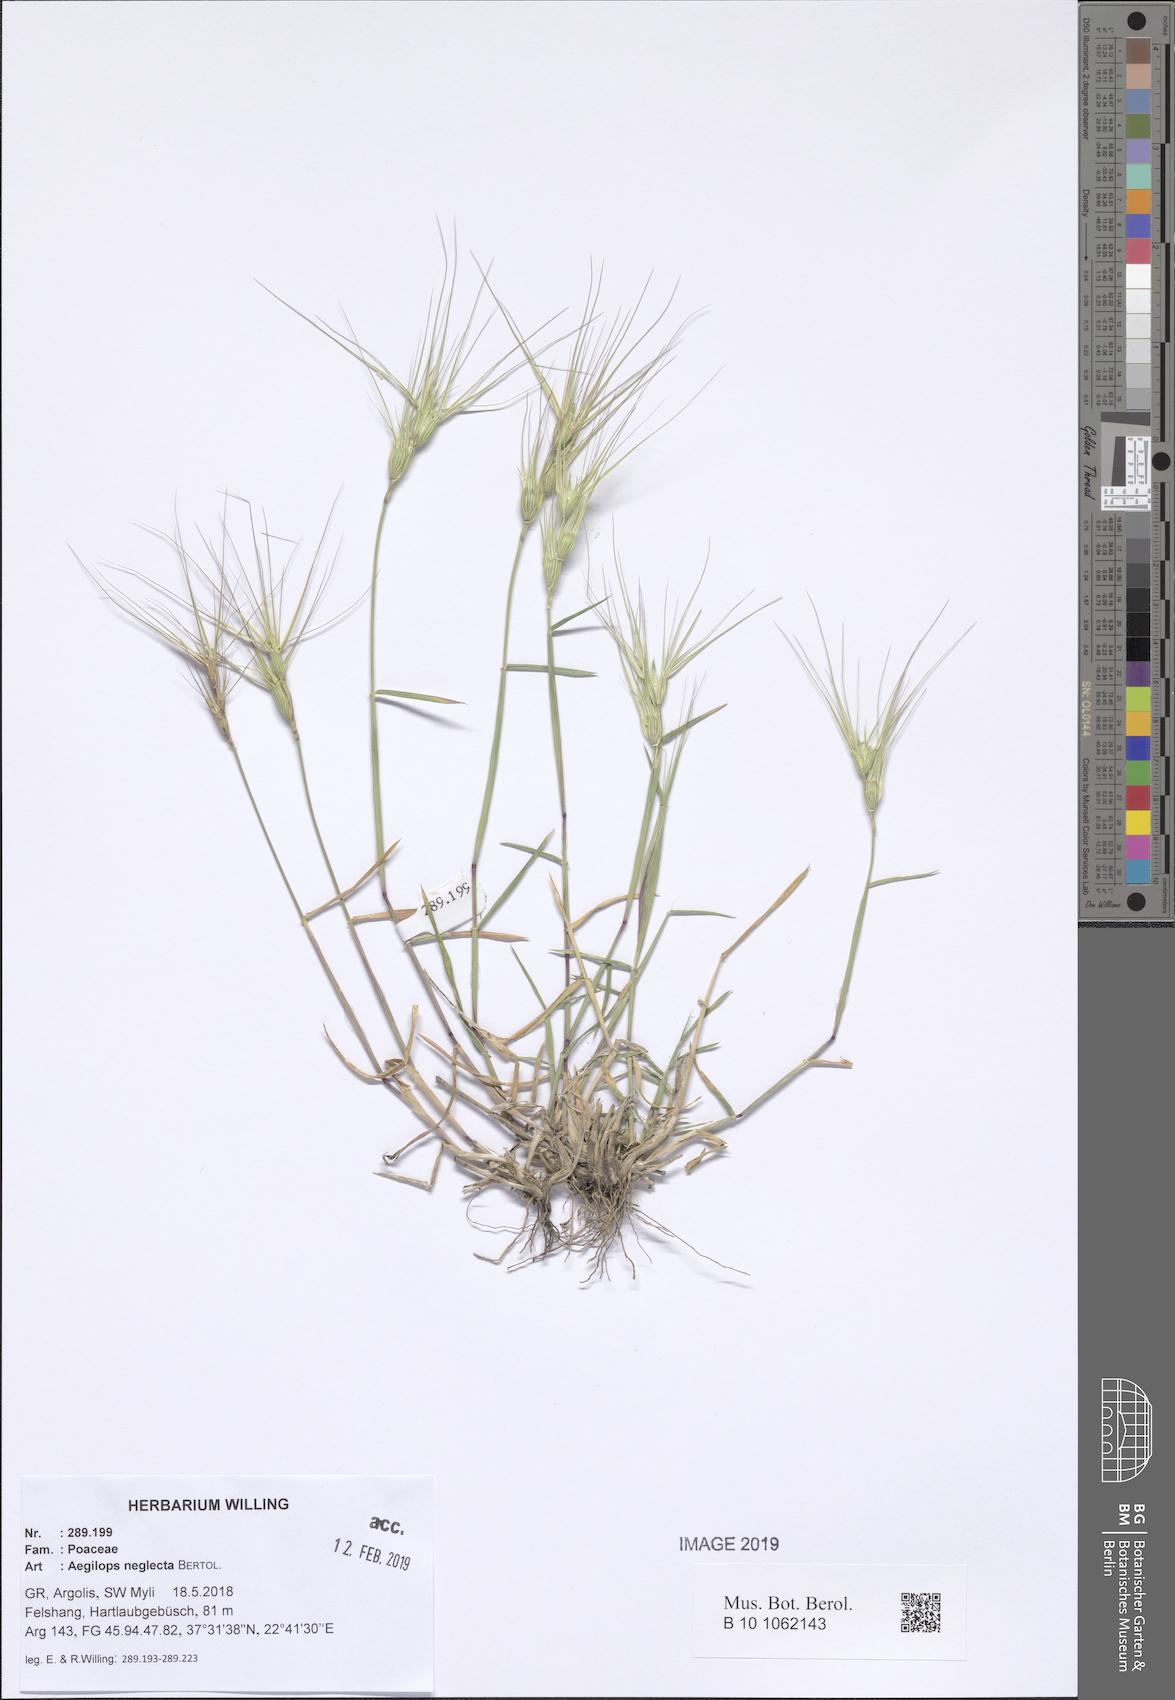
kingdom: Plantae
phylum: Tracheophyta
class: Liliopsida
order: Poales
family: Poaceae
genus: Aegilops
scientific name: Aegilops neglecta
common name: Three-awn goat grass
